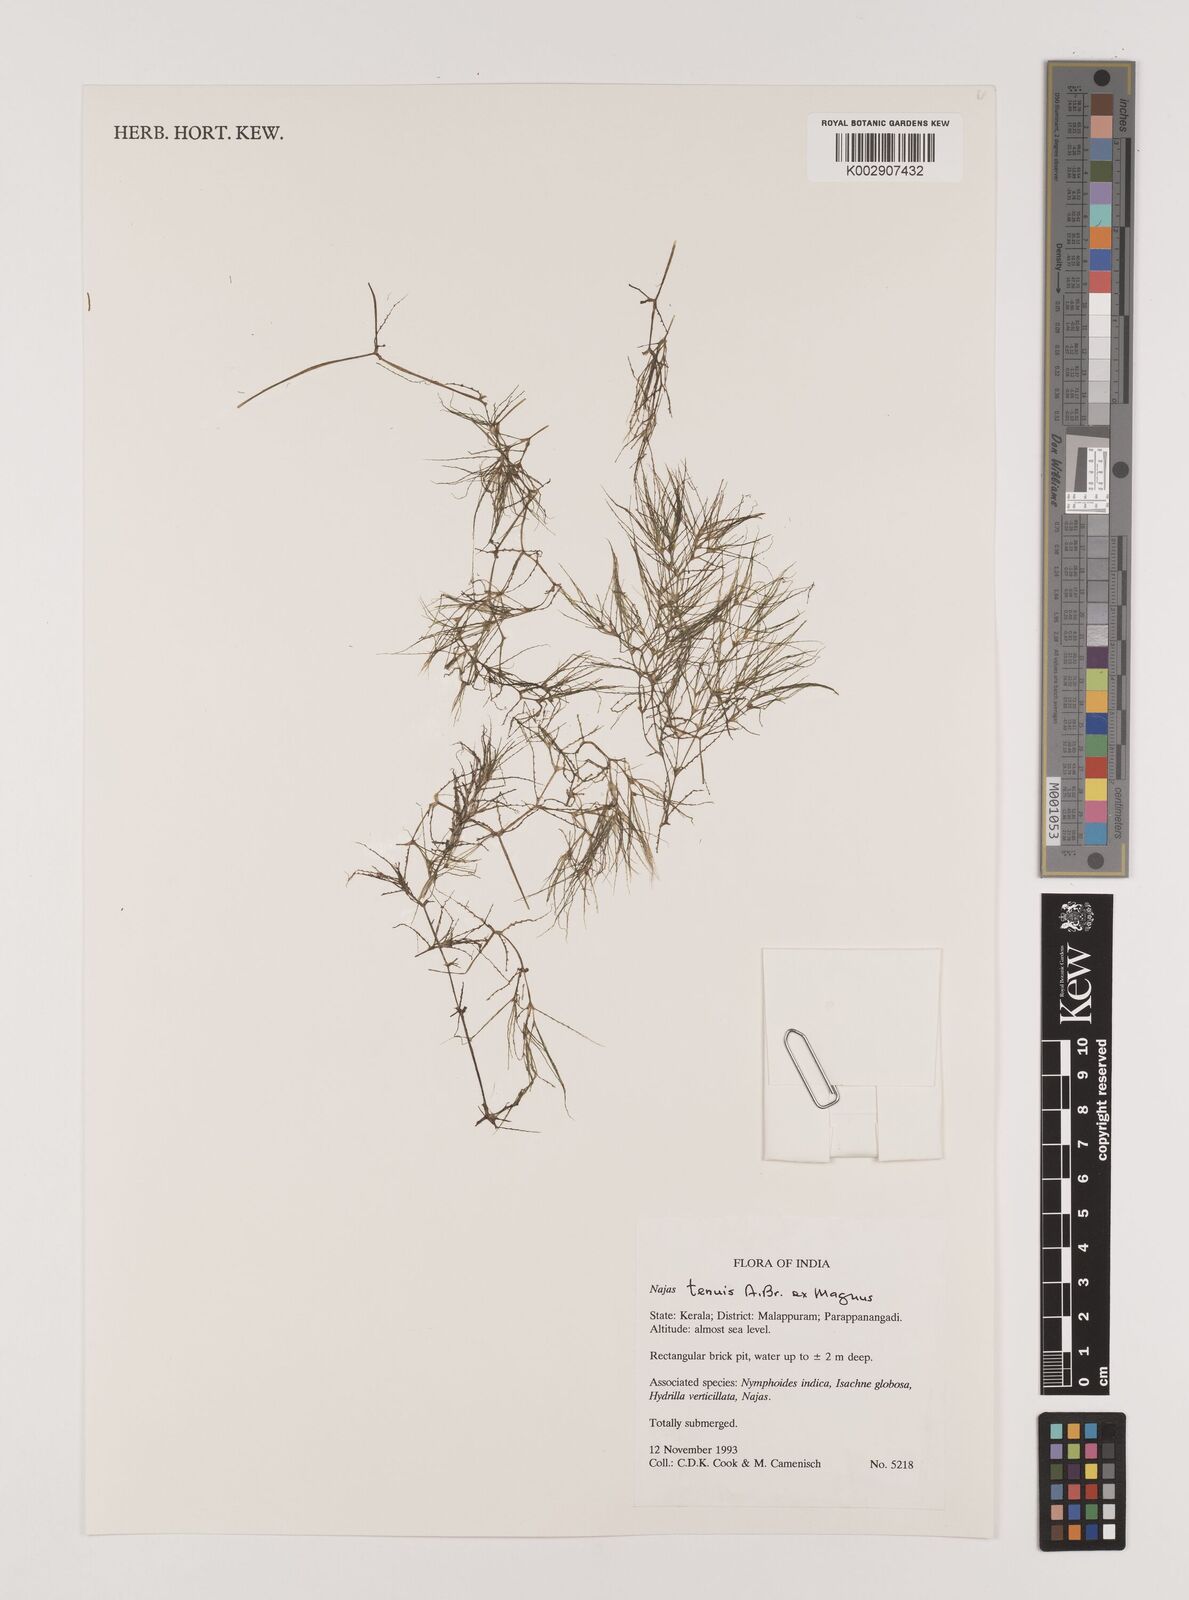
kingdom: Plantae
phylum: Tracheophyta
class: Liliopsida
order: Alismatales
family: Hydrocharitaceae
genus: Najas
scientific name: Najas indica
